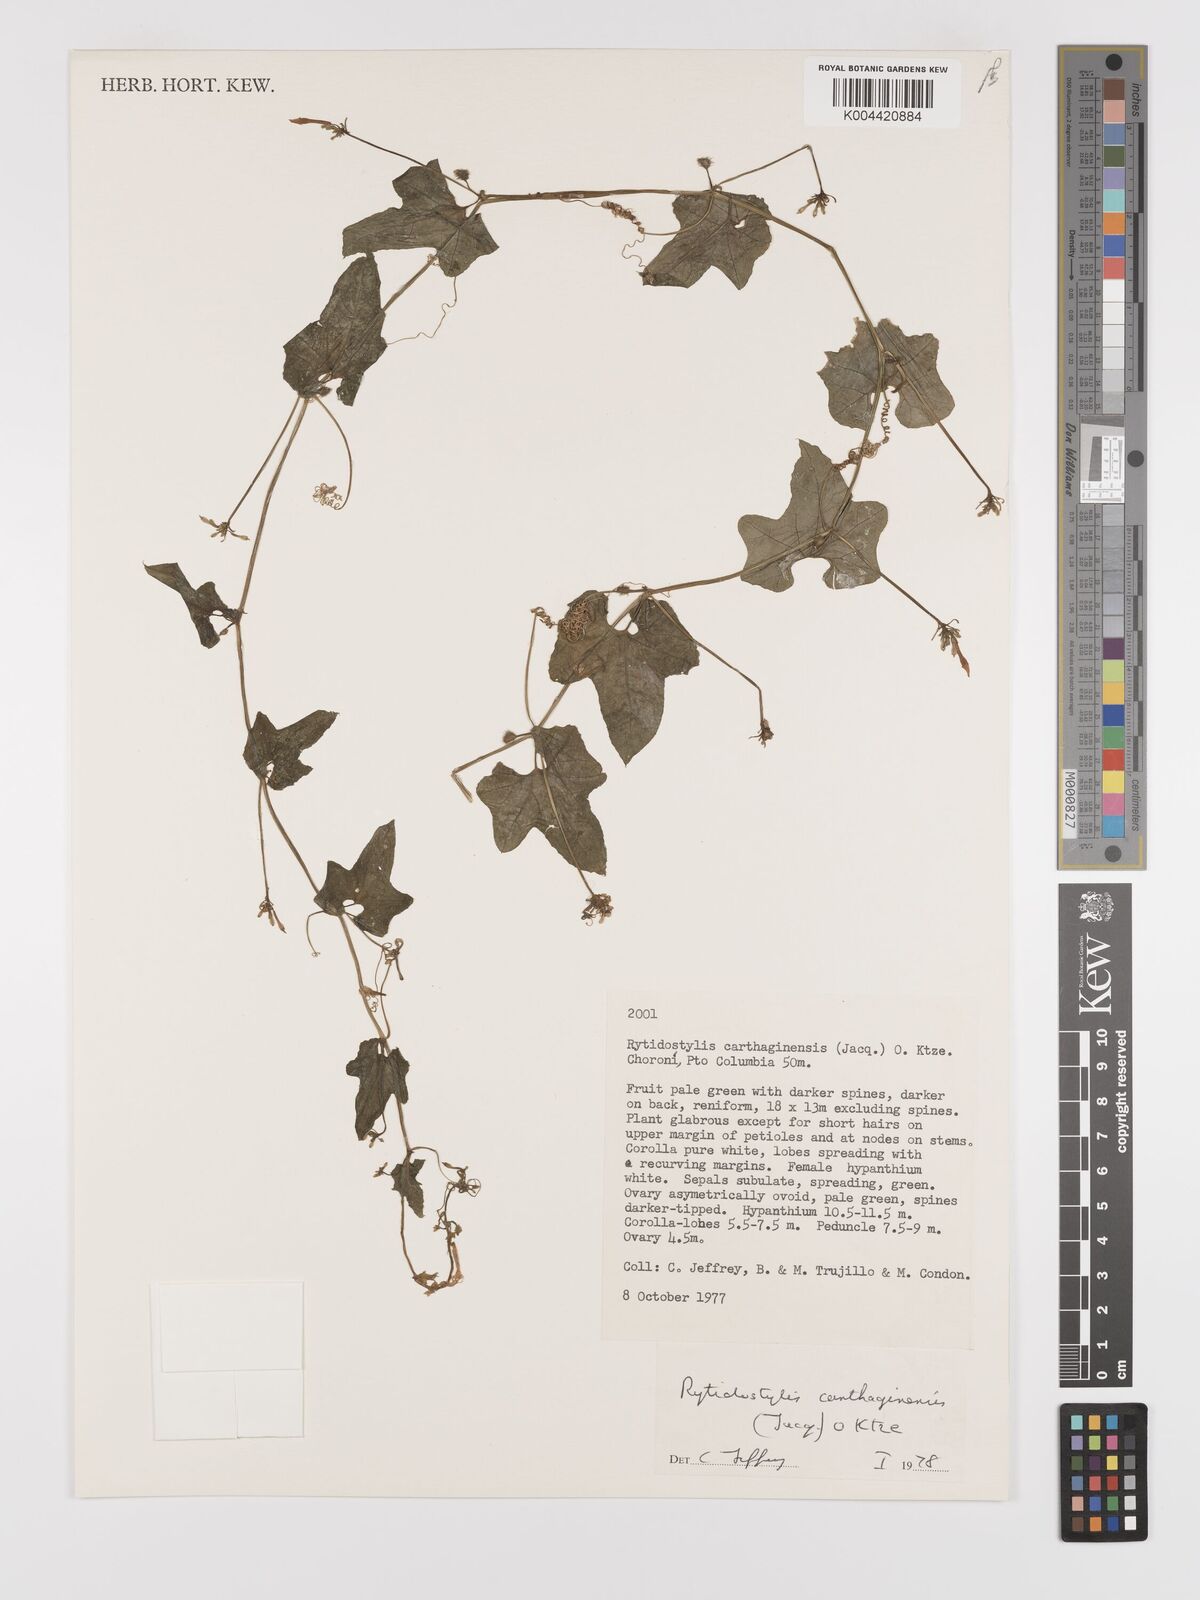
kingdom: Plantae
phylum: Tracheophyta
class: Magnoliopsida
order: Cucurbitales
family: Cucurbitaceae
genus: Cyclanthera
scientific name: Cyclanthera carthagenensis
